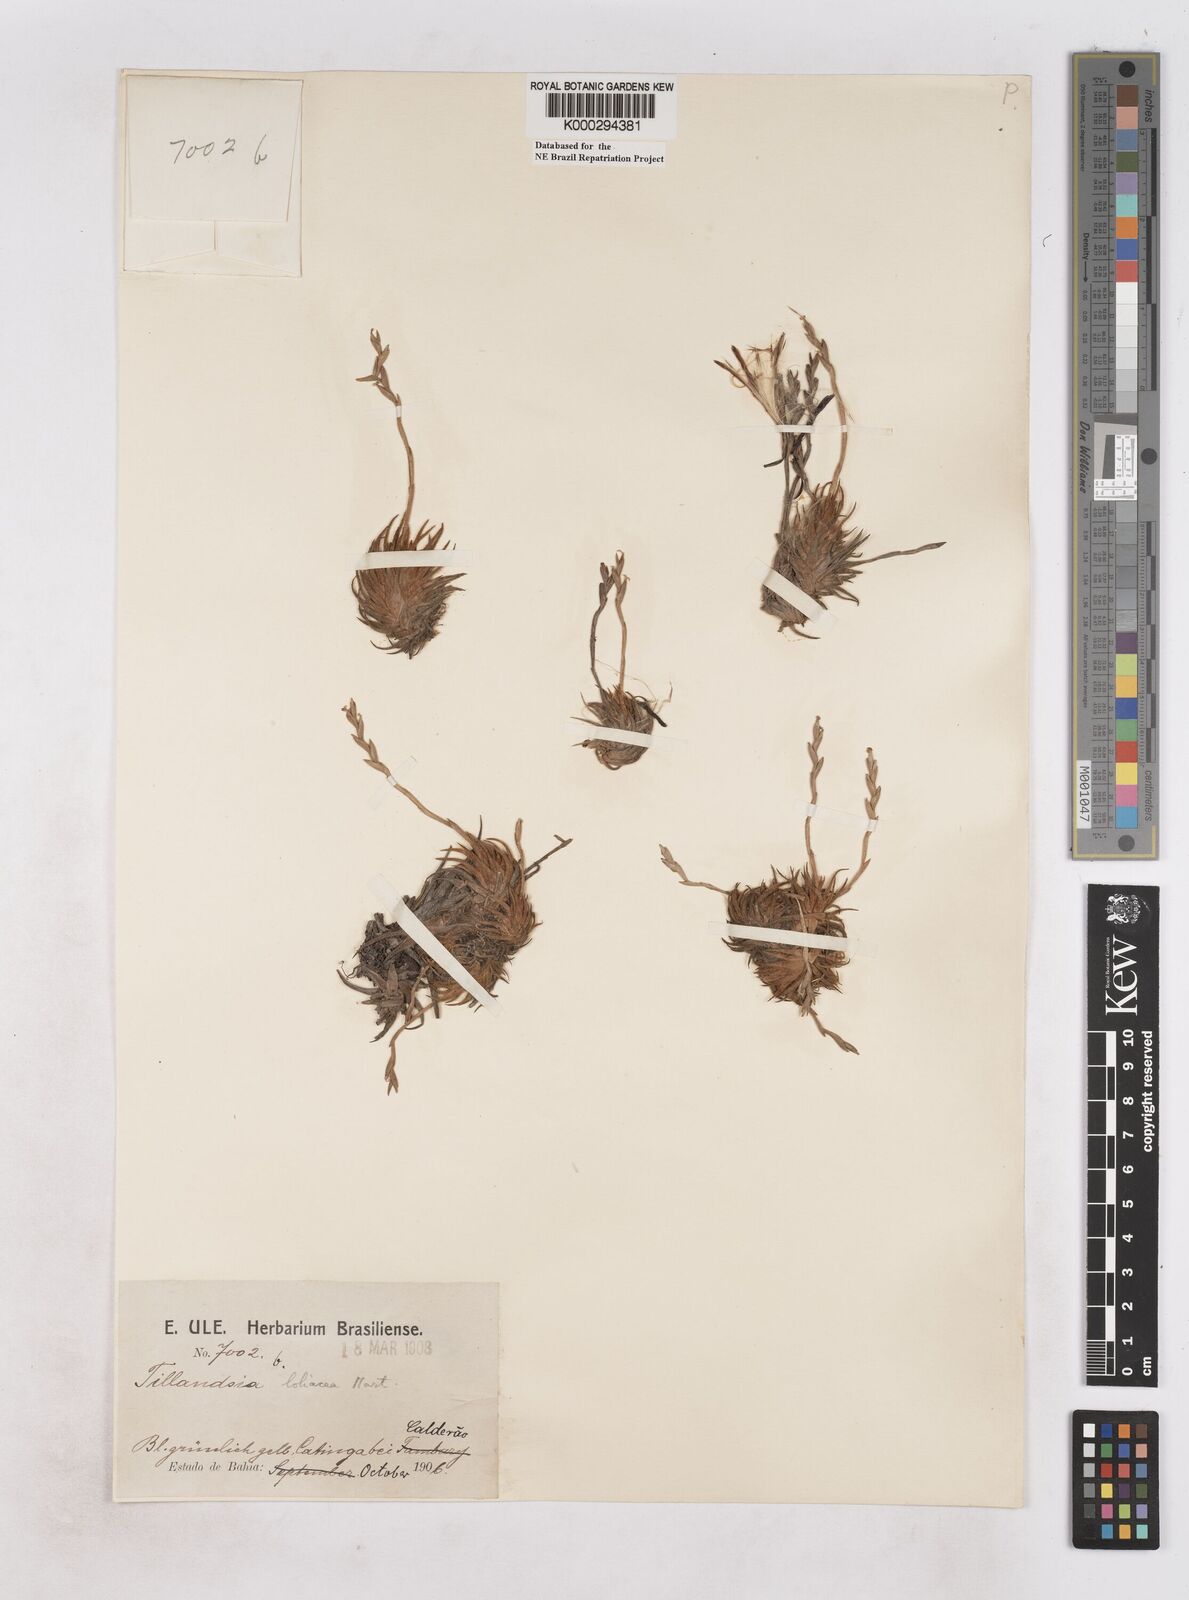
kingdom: Plantae
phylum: Tracheophyta
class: Liliopsida
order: Poales
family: Bromeliaceae
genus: Tillandsia
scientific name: Tillandsia loliacea
